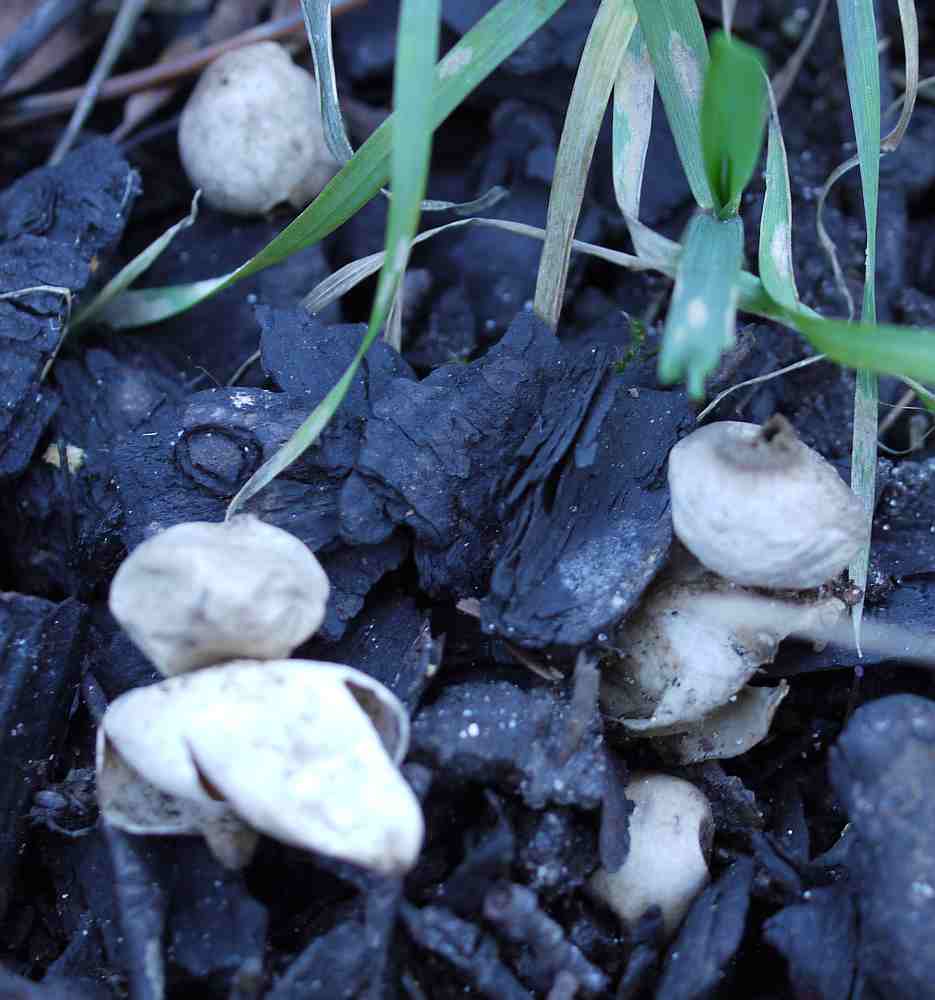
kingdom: Fungi
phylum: Basidiomycota
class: Agaricomycetes
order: Geastrales
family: Geastraceae
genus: Geastrum
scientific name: Geastrum fimbriatum
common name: frynset stjernebold
